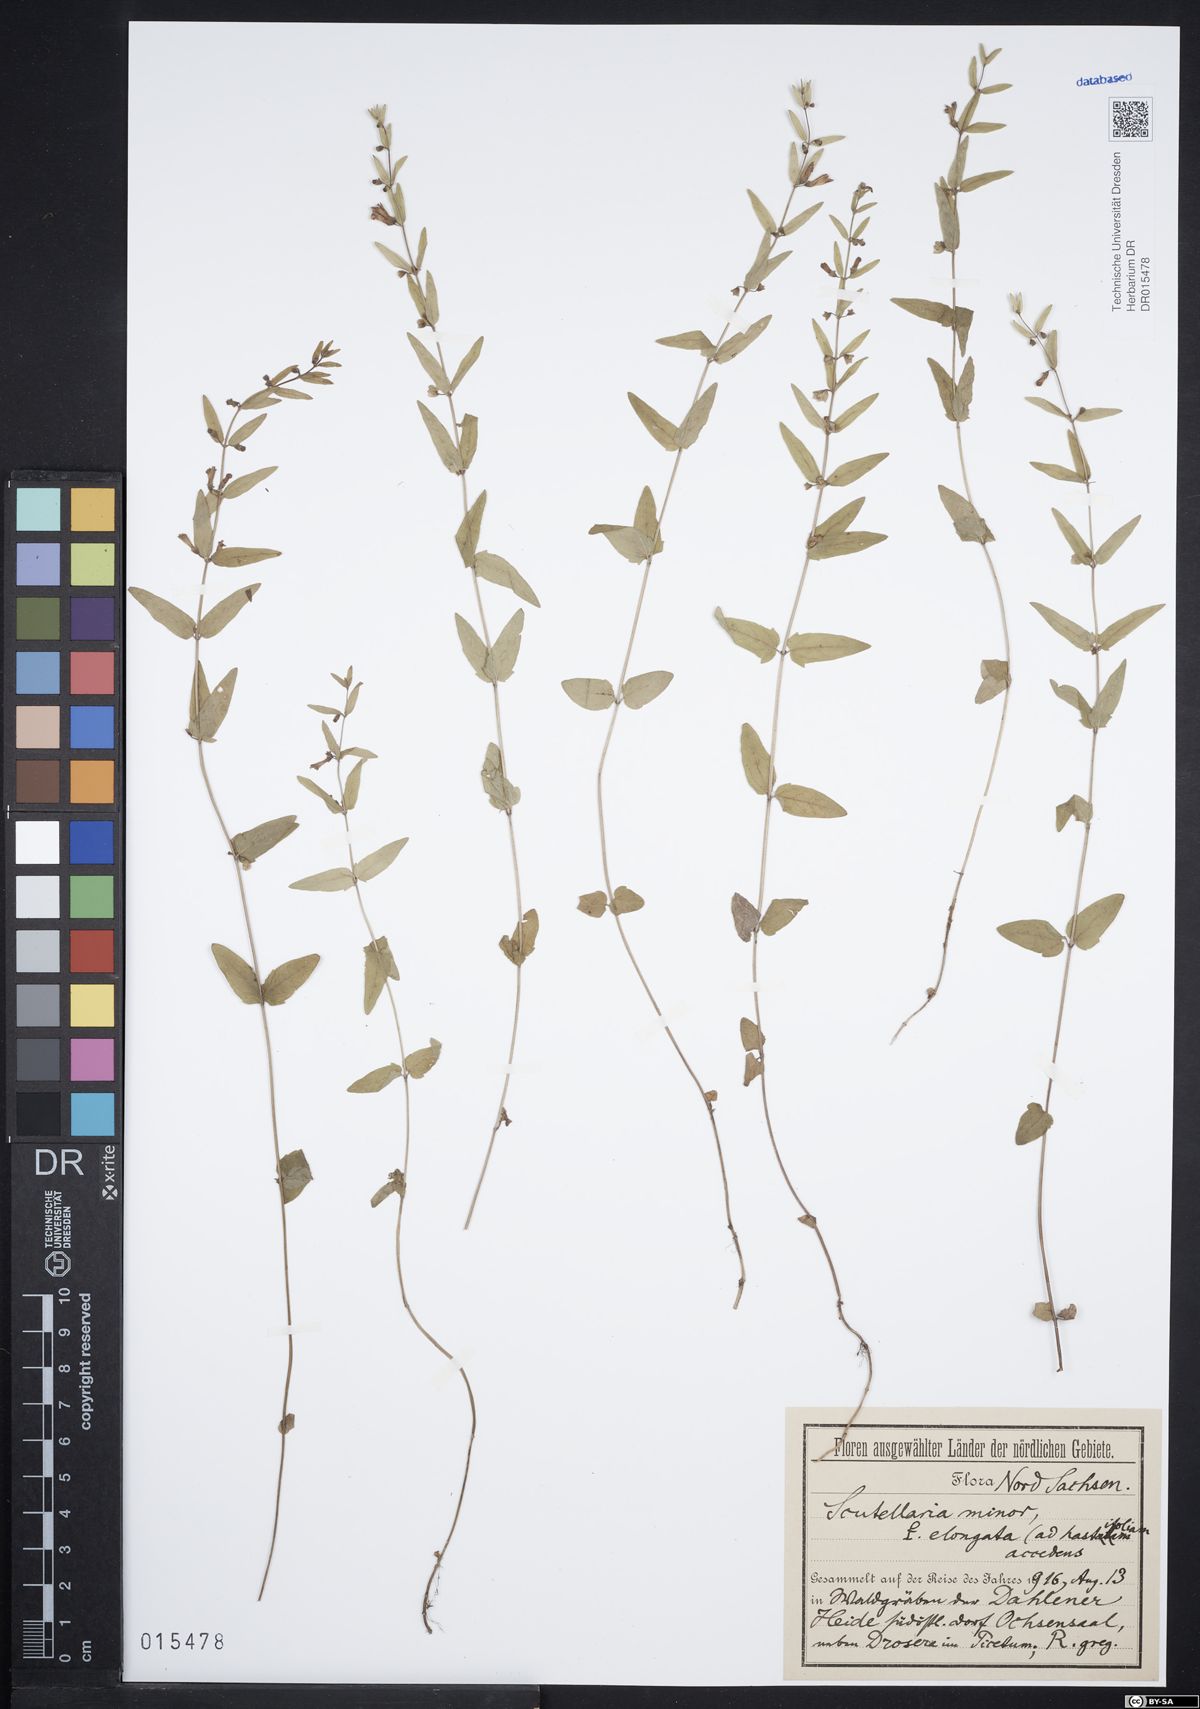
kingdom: Plantae
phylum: Tracheophyta
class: Magnoliopsida
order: Lamiales
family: Lamiaceae
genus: Scutellaria
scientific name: Scutellaria minor
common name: Lesser skullcap
